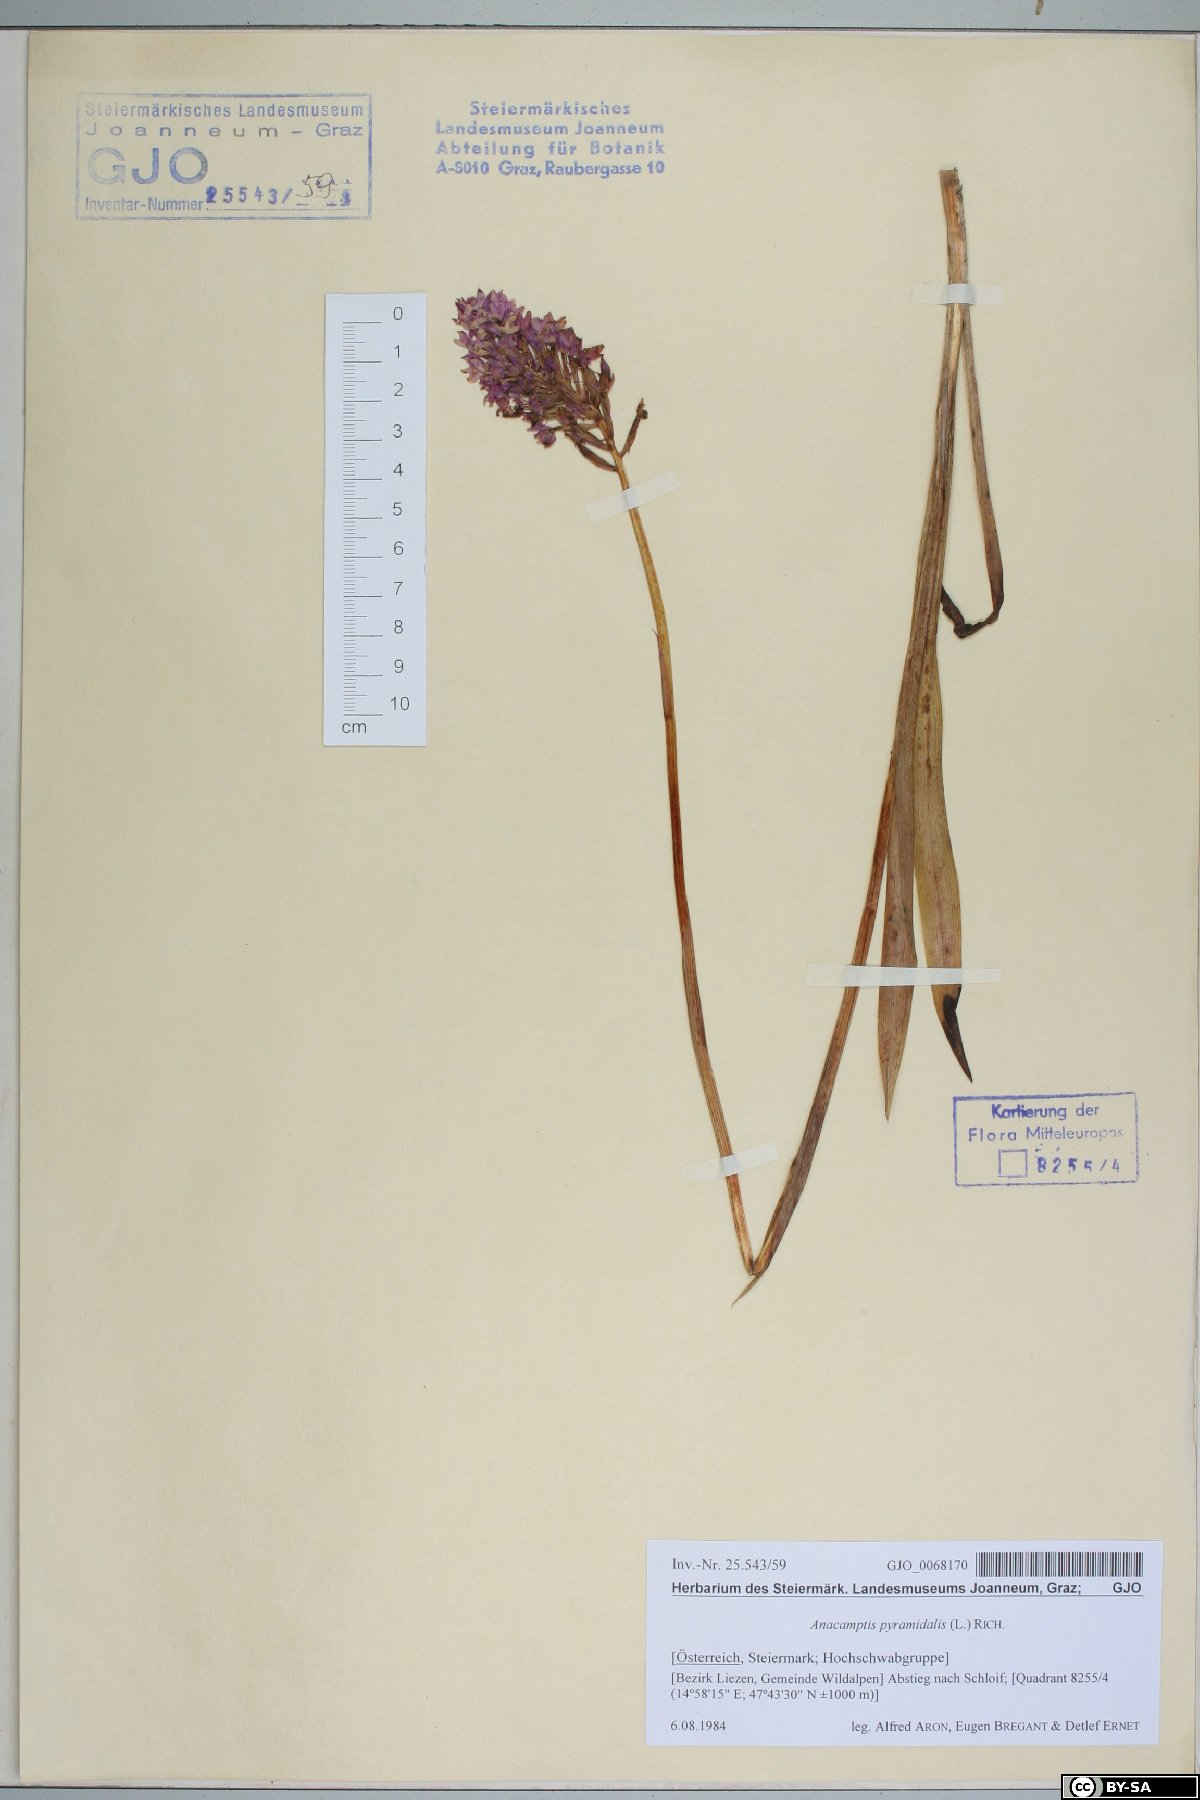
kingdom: Plantae
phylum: Tracheophyta
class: Liliopsida
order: Asparagales
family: Orchidaceae
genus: Anacamptis
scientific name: Anacamptis pyramidalis
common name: Pyramidal orchid
